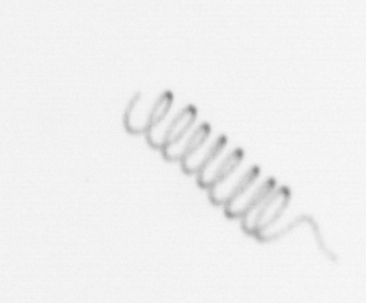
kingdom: Chromista
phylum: Ochrophyta
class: Bacillariophyceae
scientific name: Bacillariophyceae
